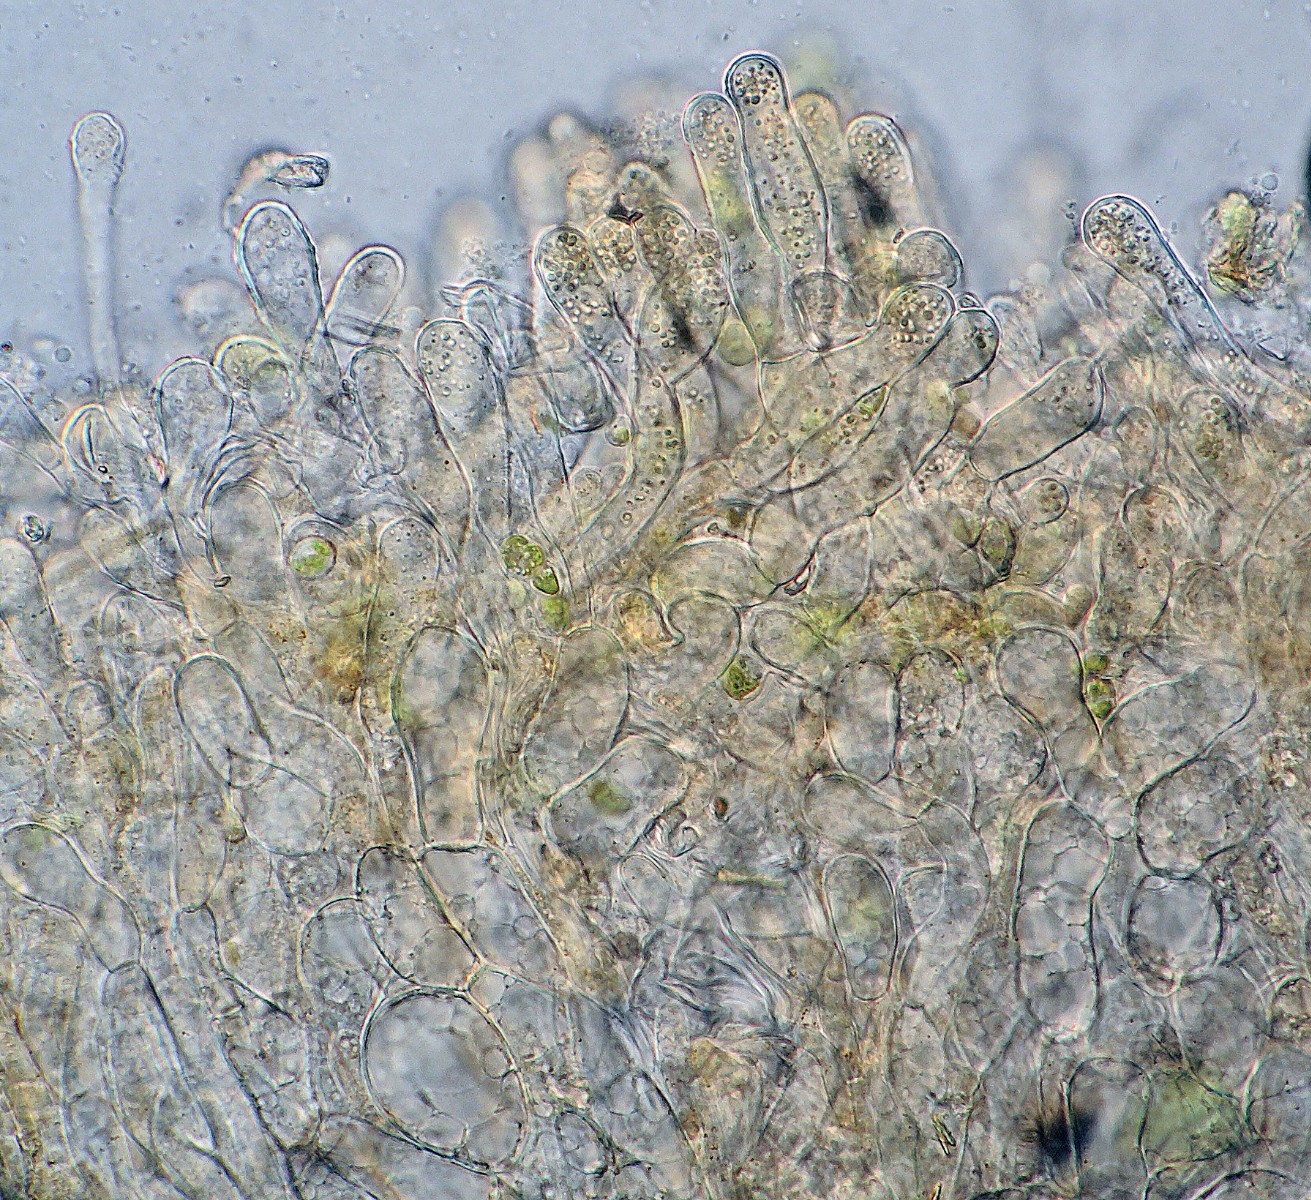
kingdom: Fungi
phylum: Ascomycota
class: Pezizomycetes
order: Pezizales
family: Pyronemataceae
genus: Octospora
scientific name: Octospora musci-muralis
